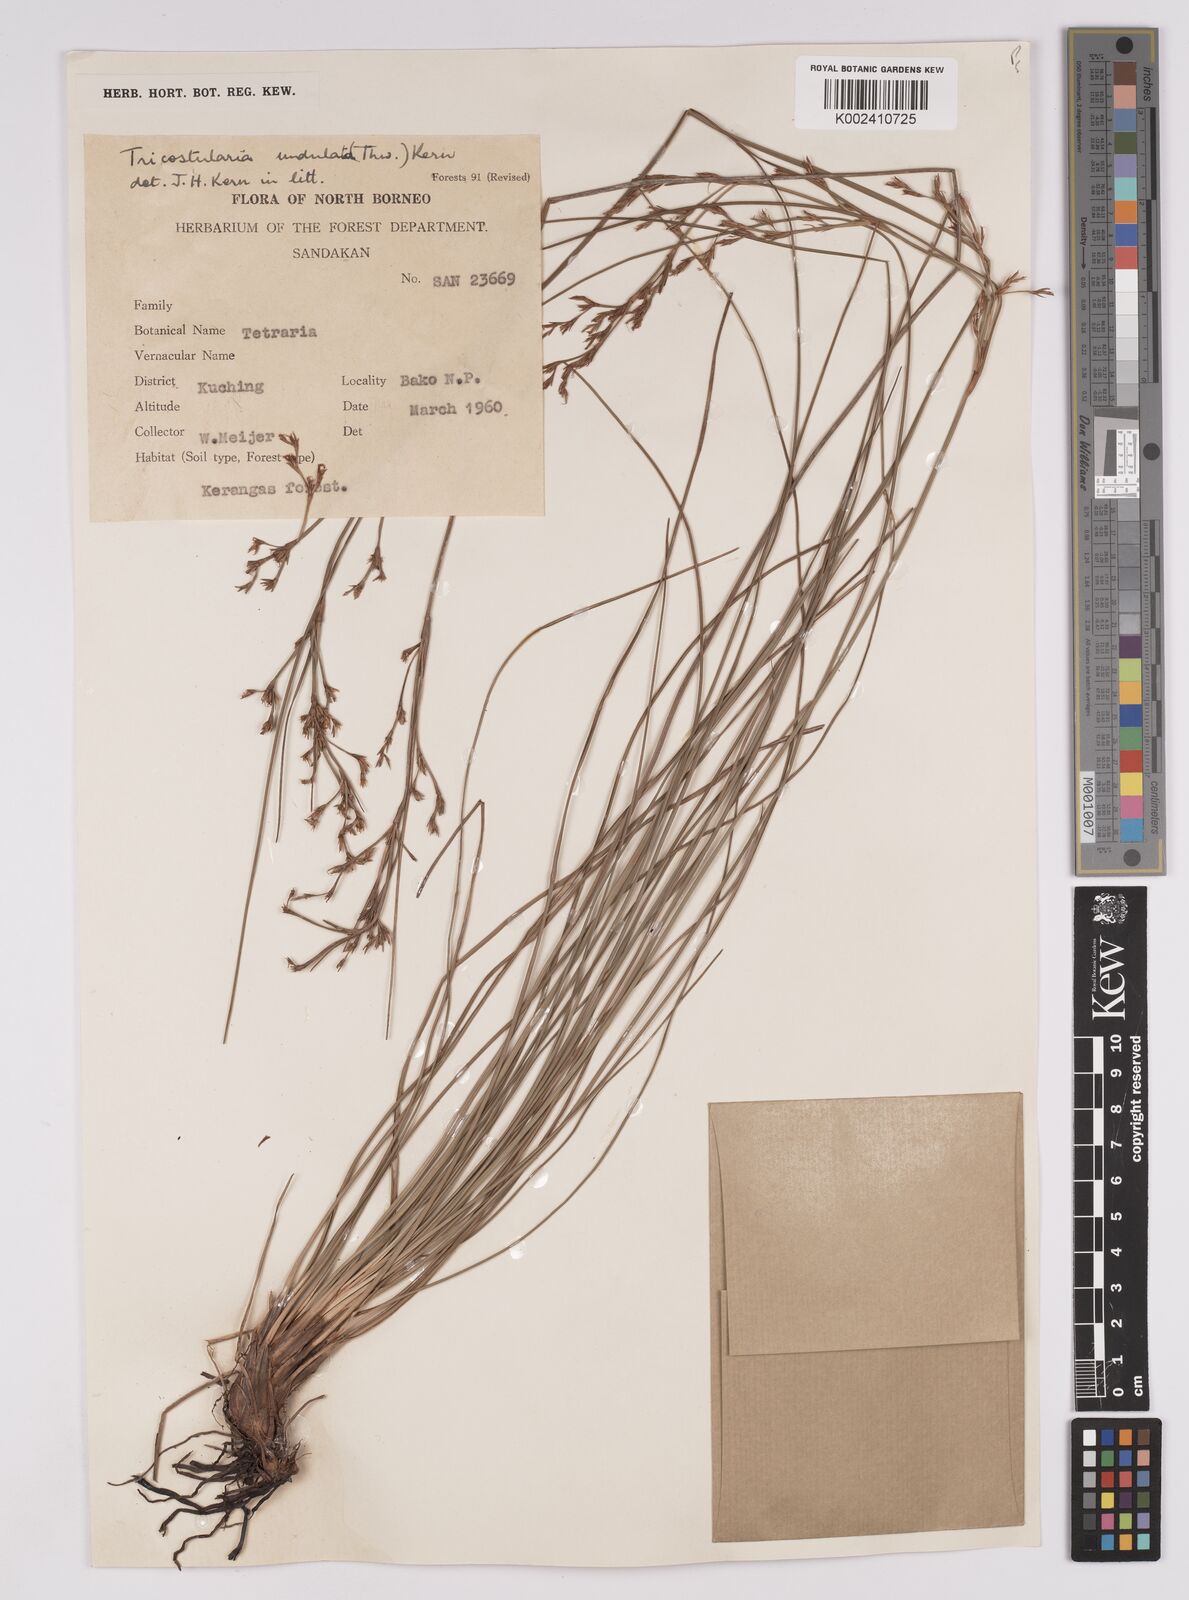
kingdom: Plantae
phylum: Tracheophyta
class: Liliopsida
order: Poales
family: Cyperaceae
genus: Anthelepis
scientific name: Anthelepis undulata
